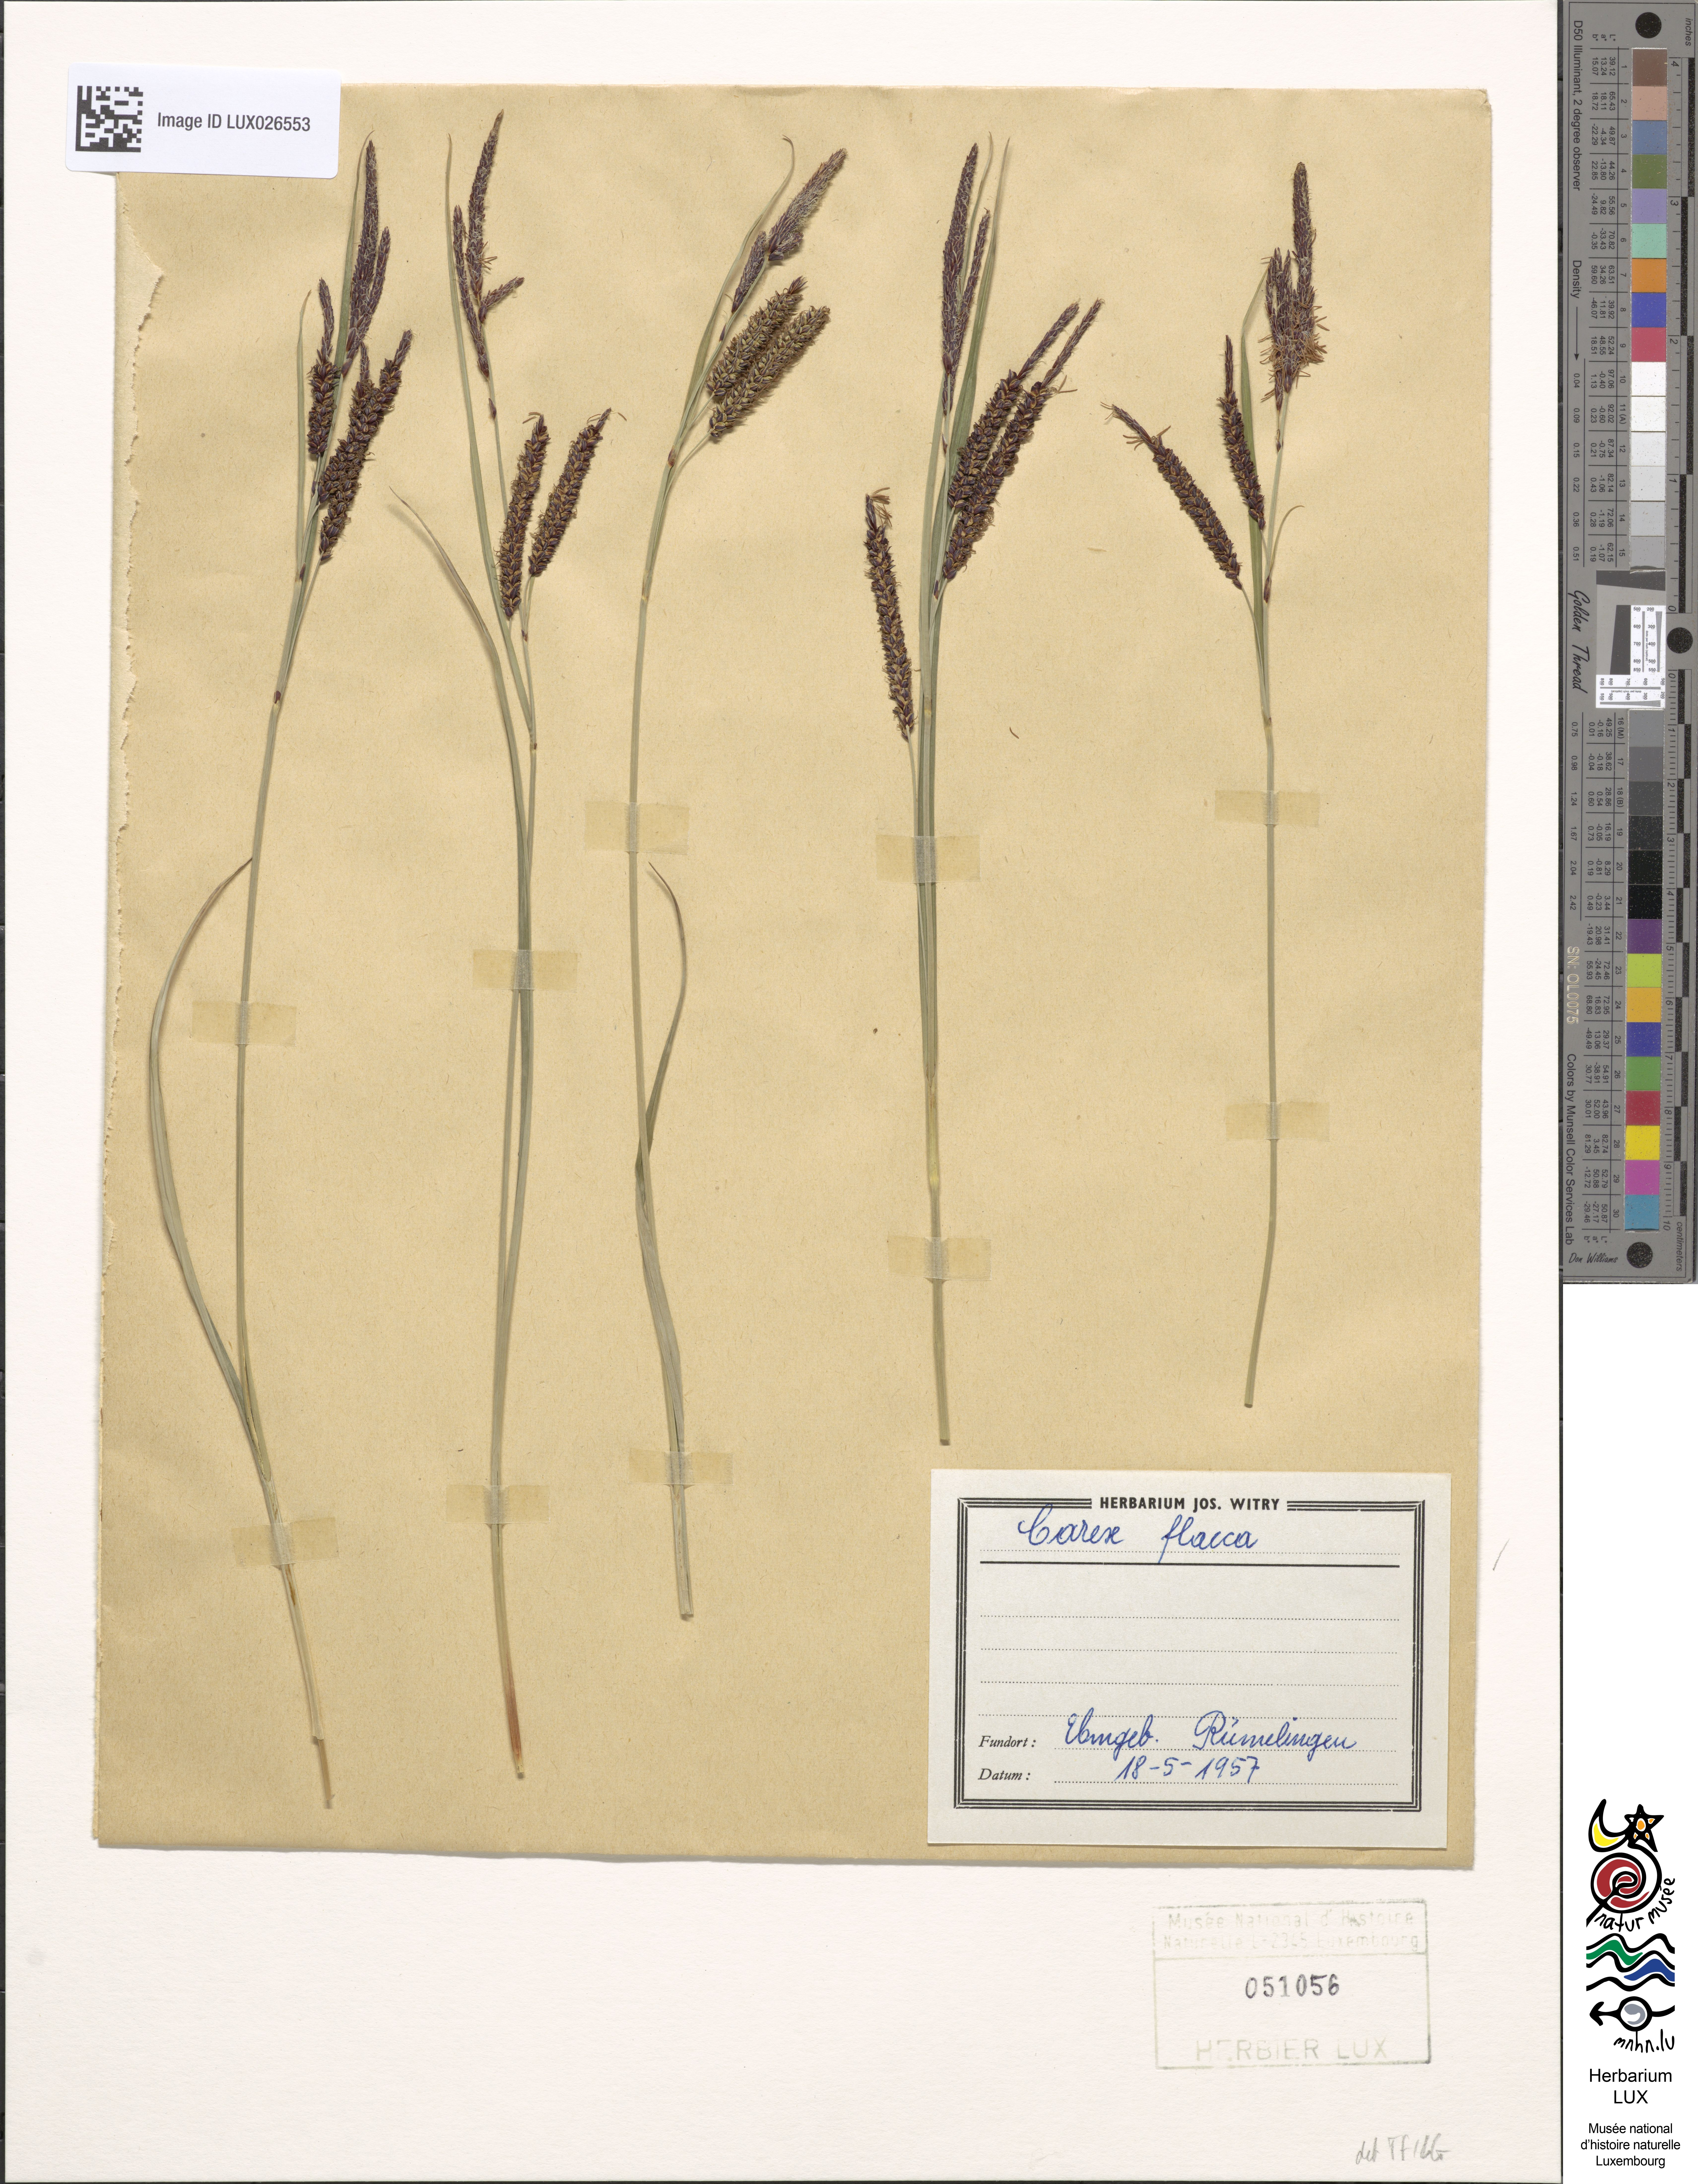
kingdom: Plantae
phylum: Tracheophyta
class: Liliopsida
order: Poales
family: Cyperaceae
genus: Carex
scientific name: Carex flacca
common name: Glaucous sedge
